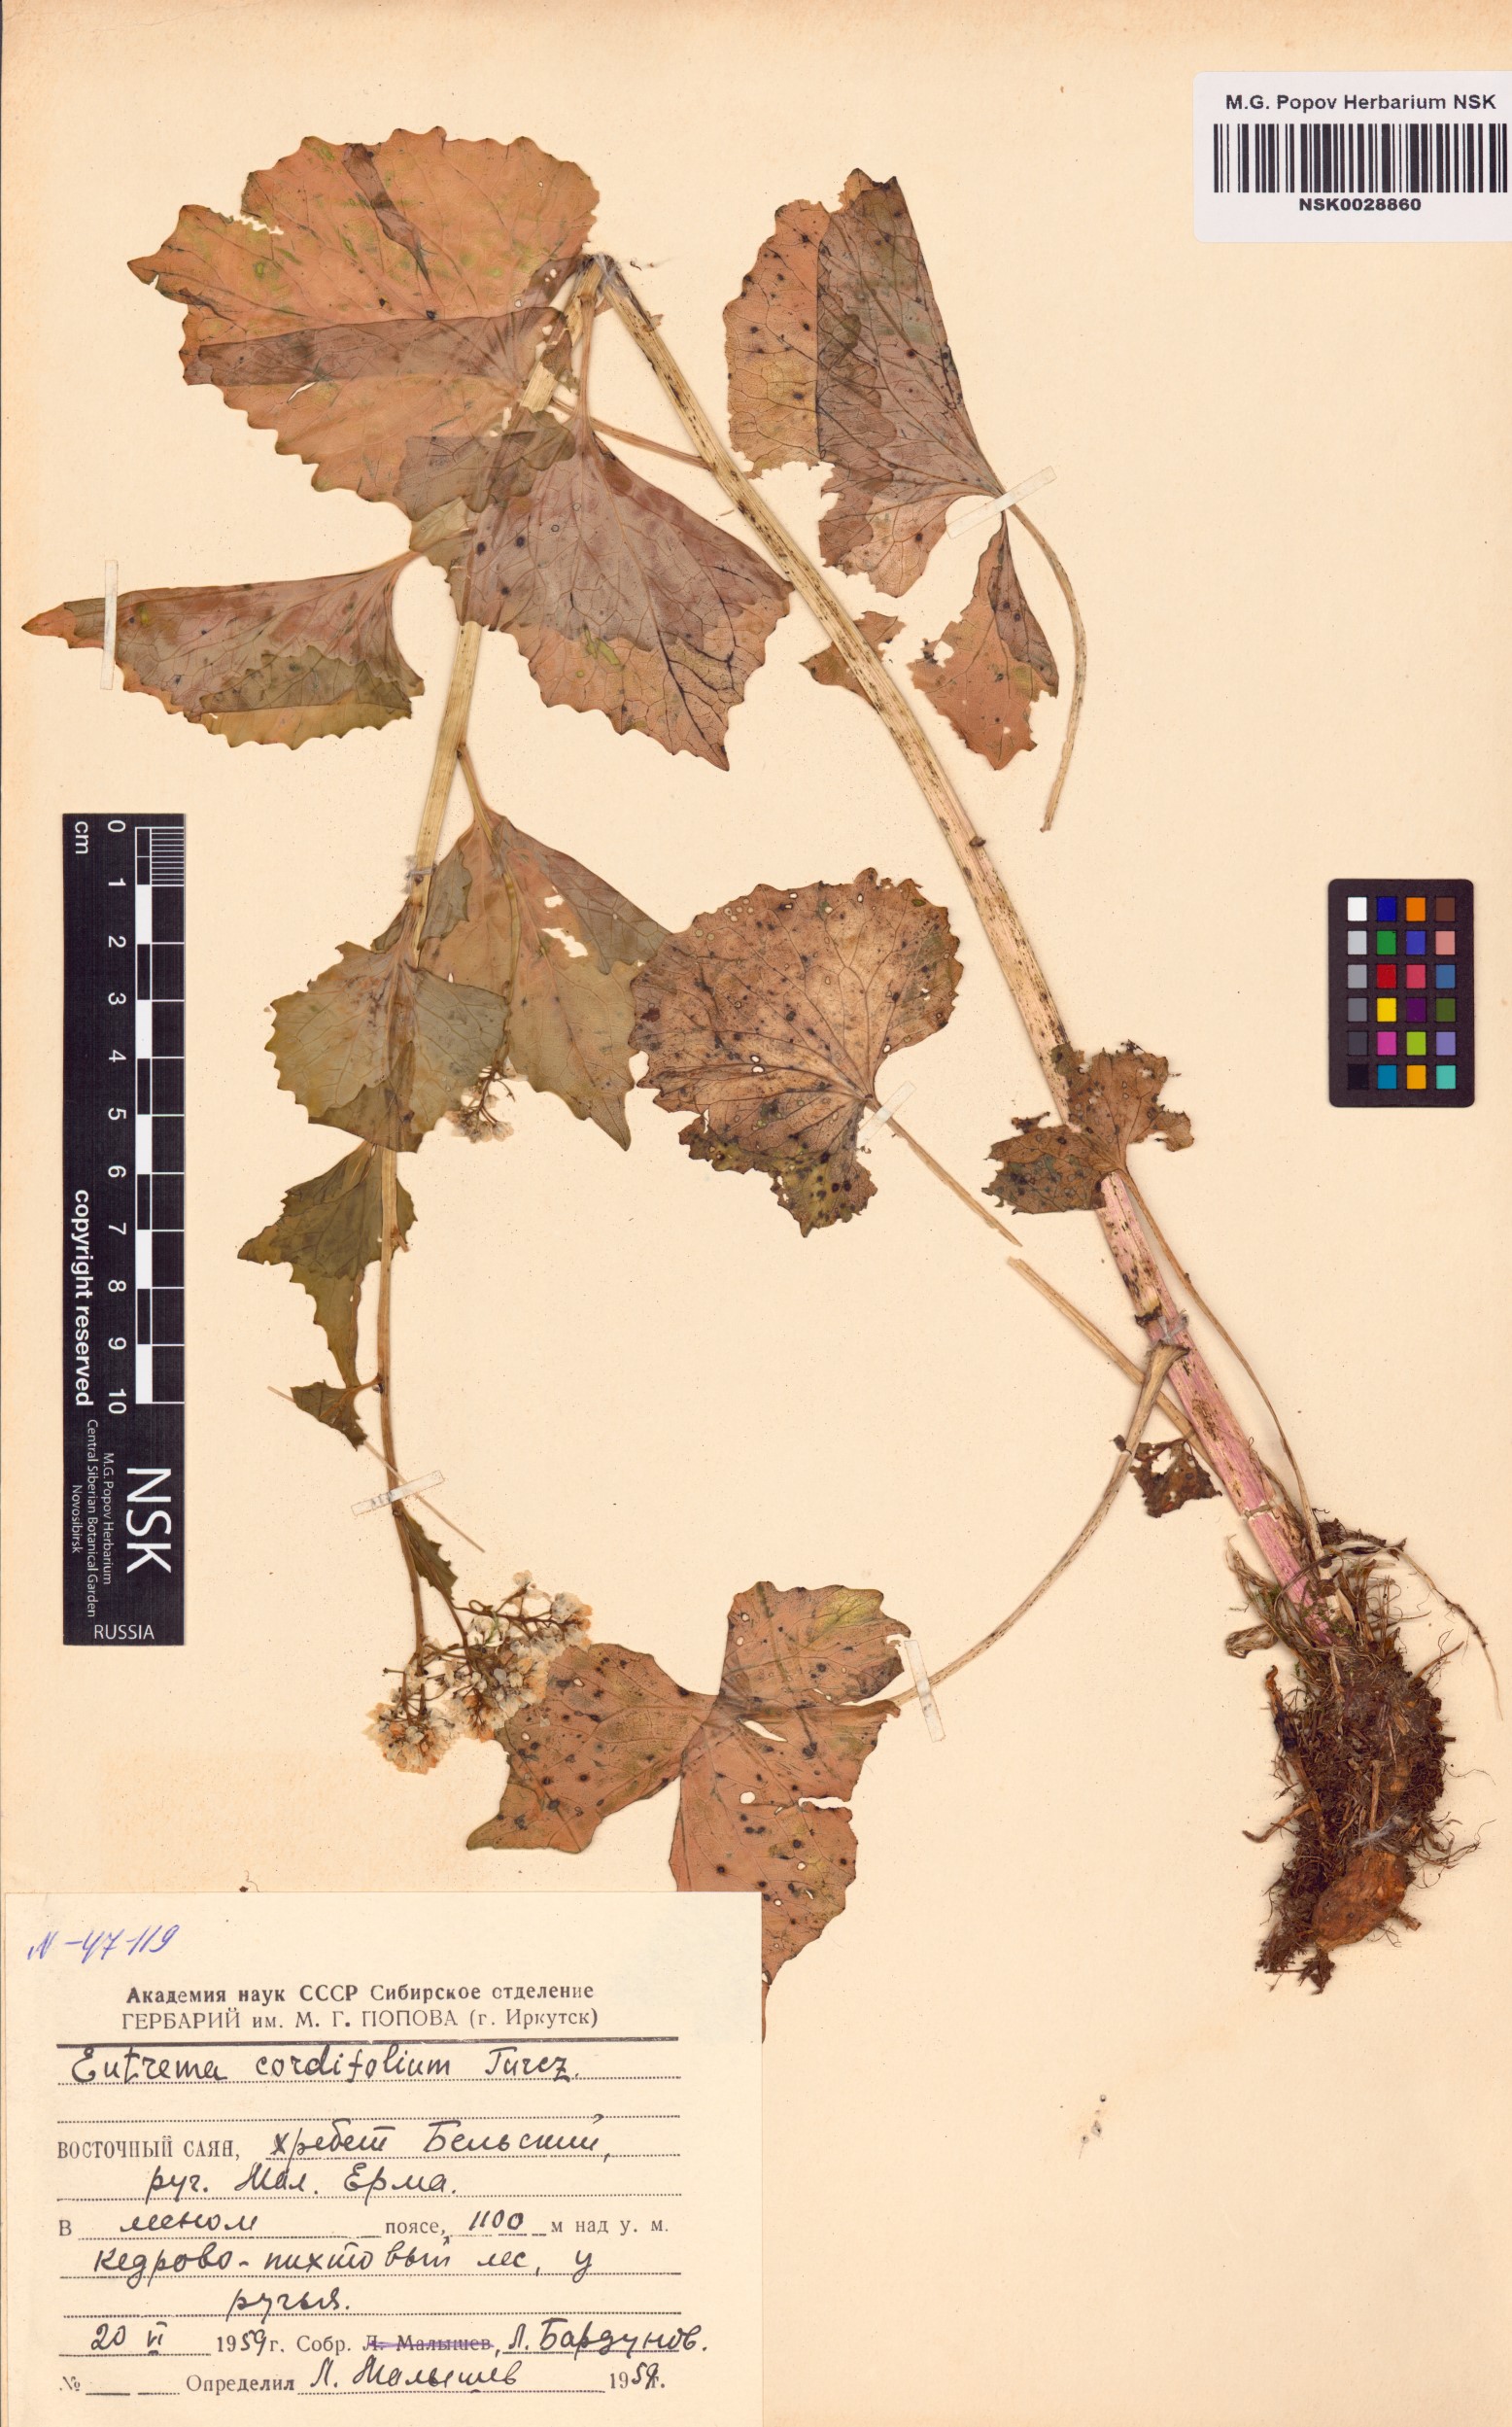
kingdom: Plantae
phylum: Tracheophyta
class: Magnoliopsida
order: Brassicales
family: Brassicaceae
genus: Eutrema
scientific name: Eutrema cordifolium
